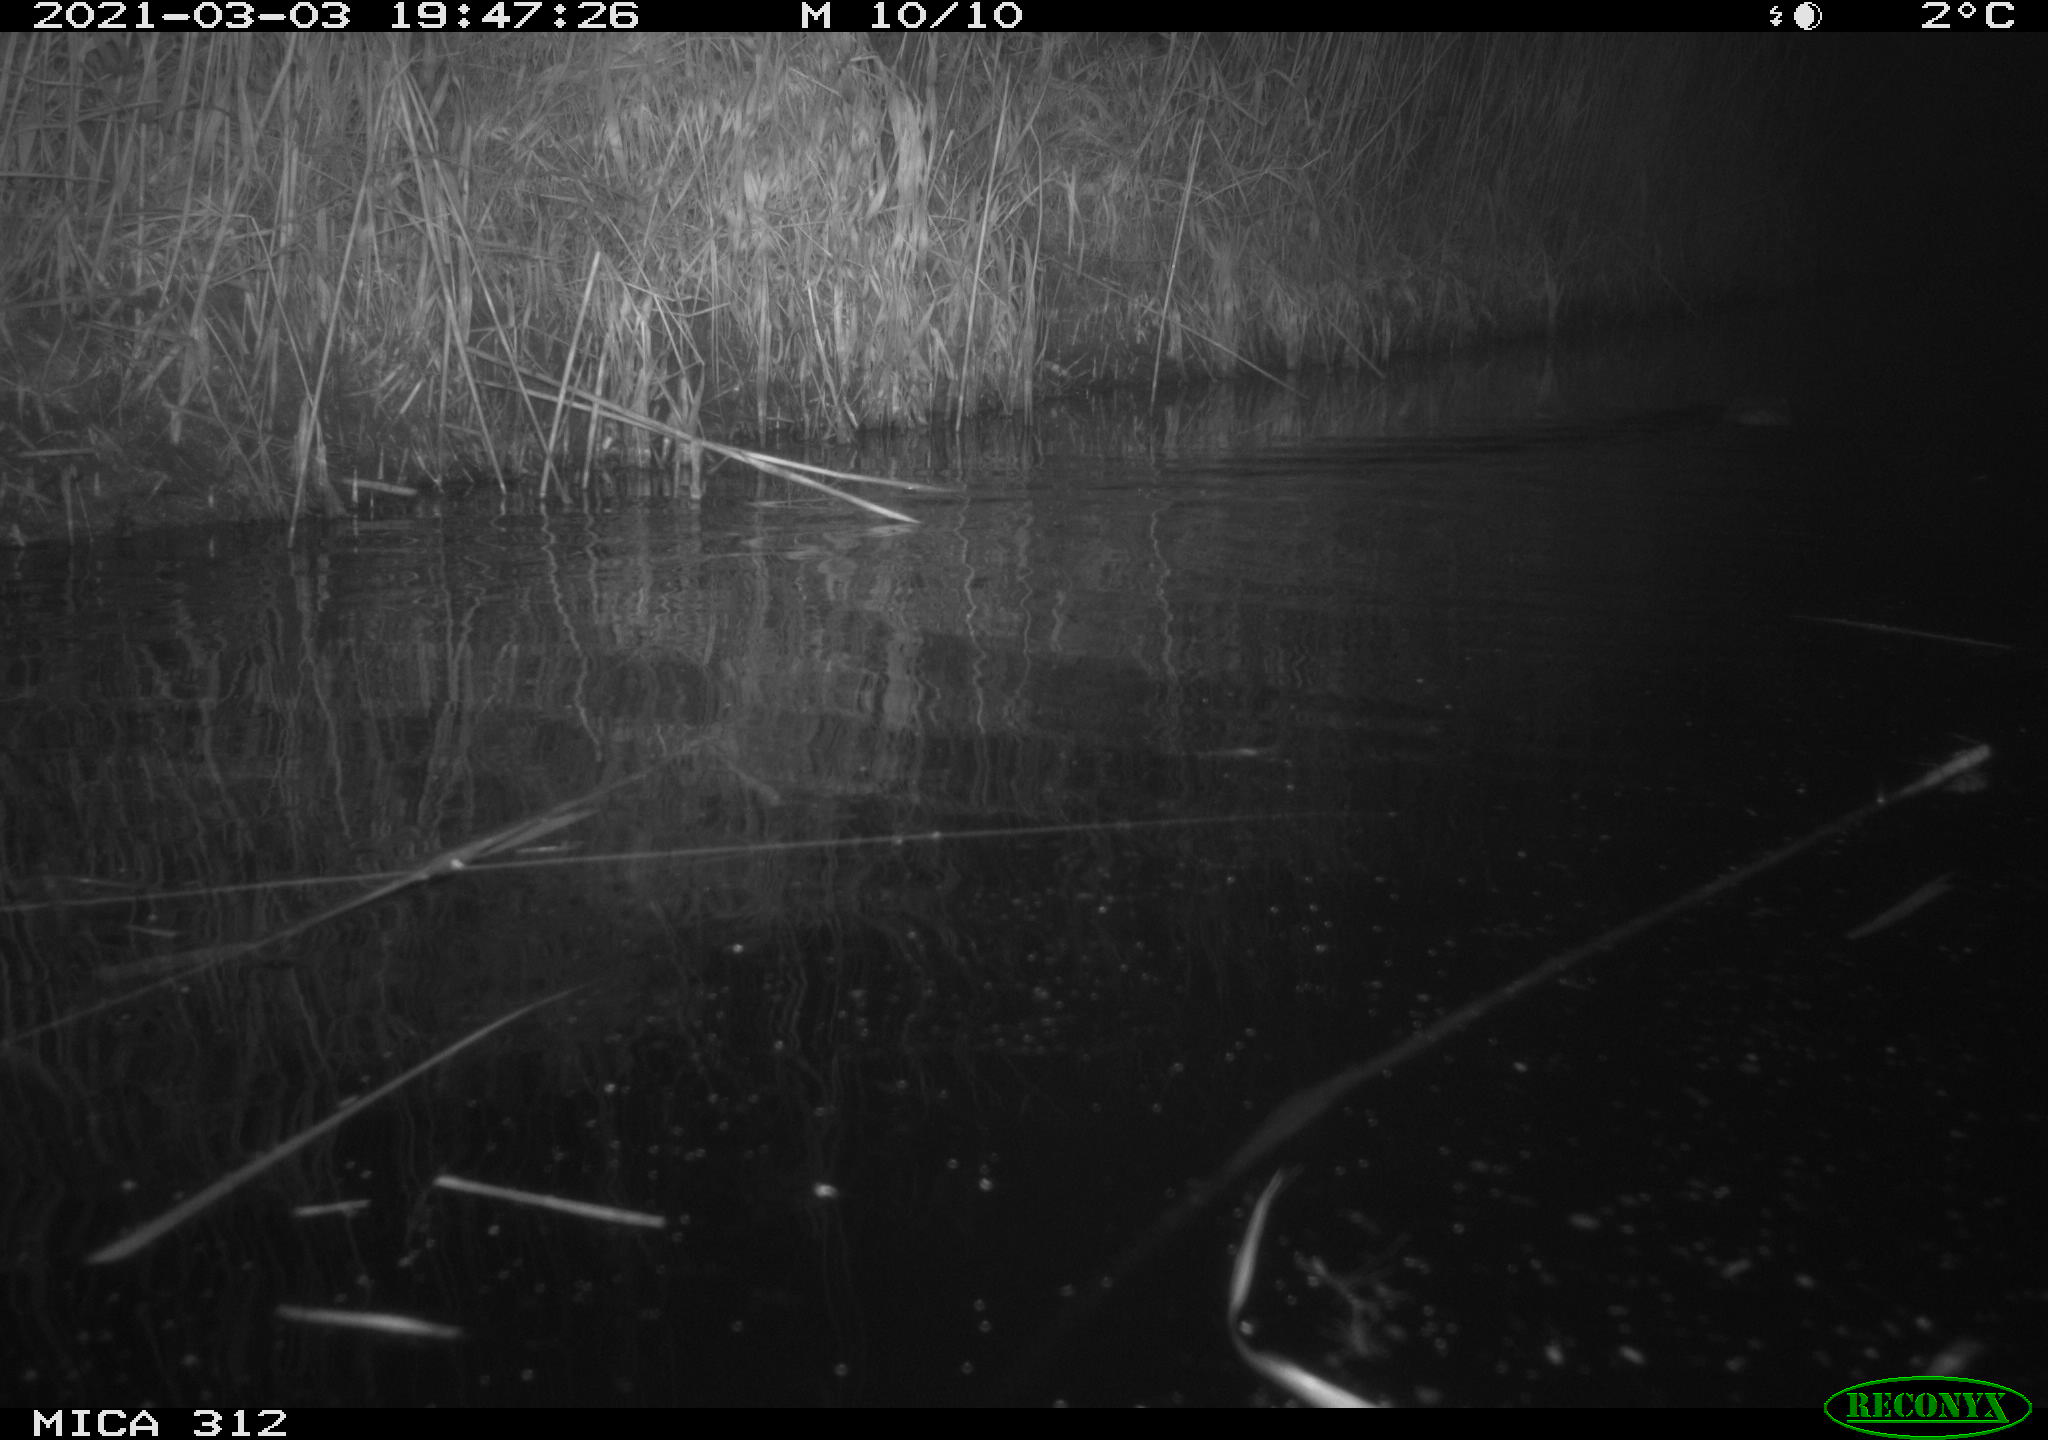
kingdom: Animalia
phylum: Chordata
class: Mammalia
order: Rodentia
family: Cricetidae
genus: Ondatra
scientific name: Ondatra zibethicus
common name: Muskrat
